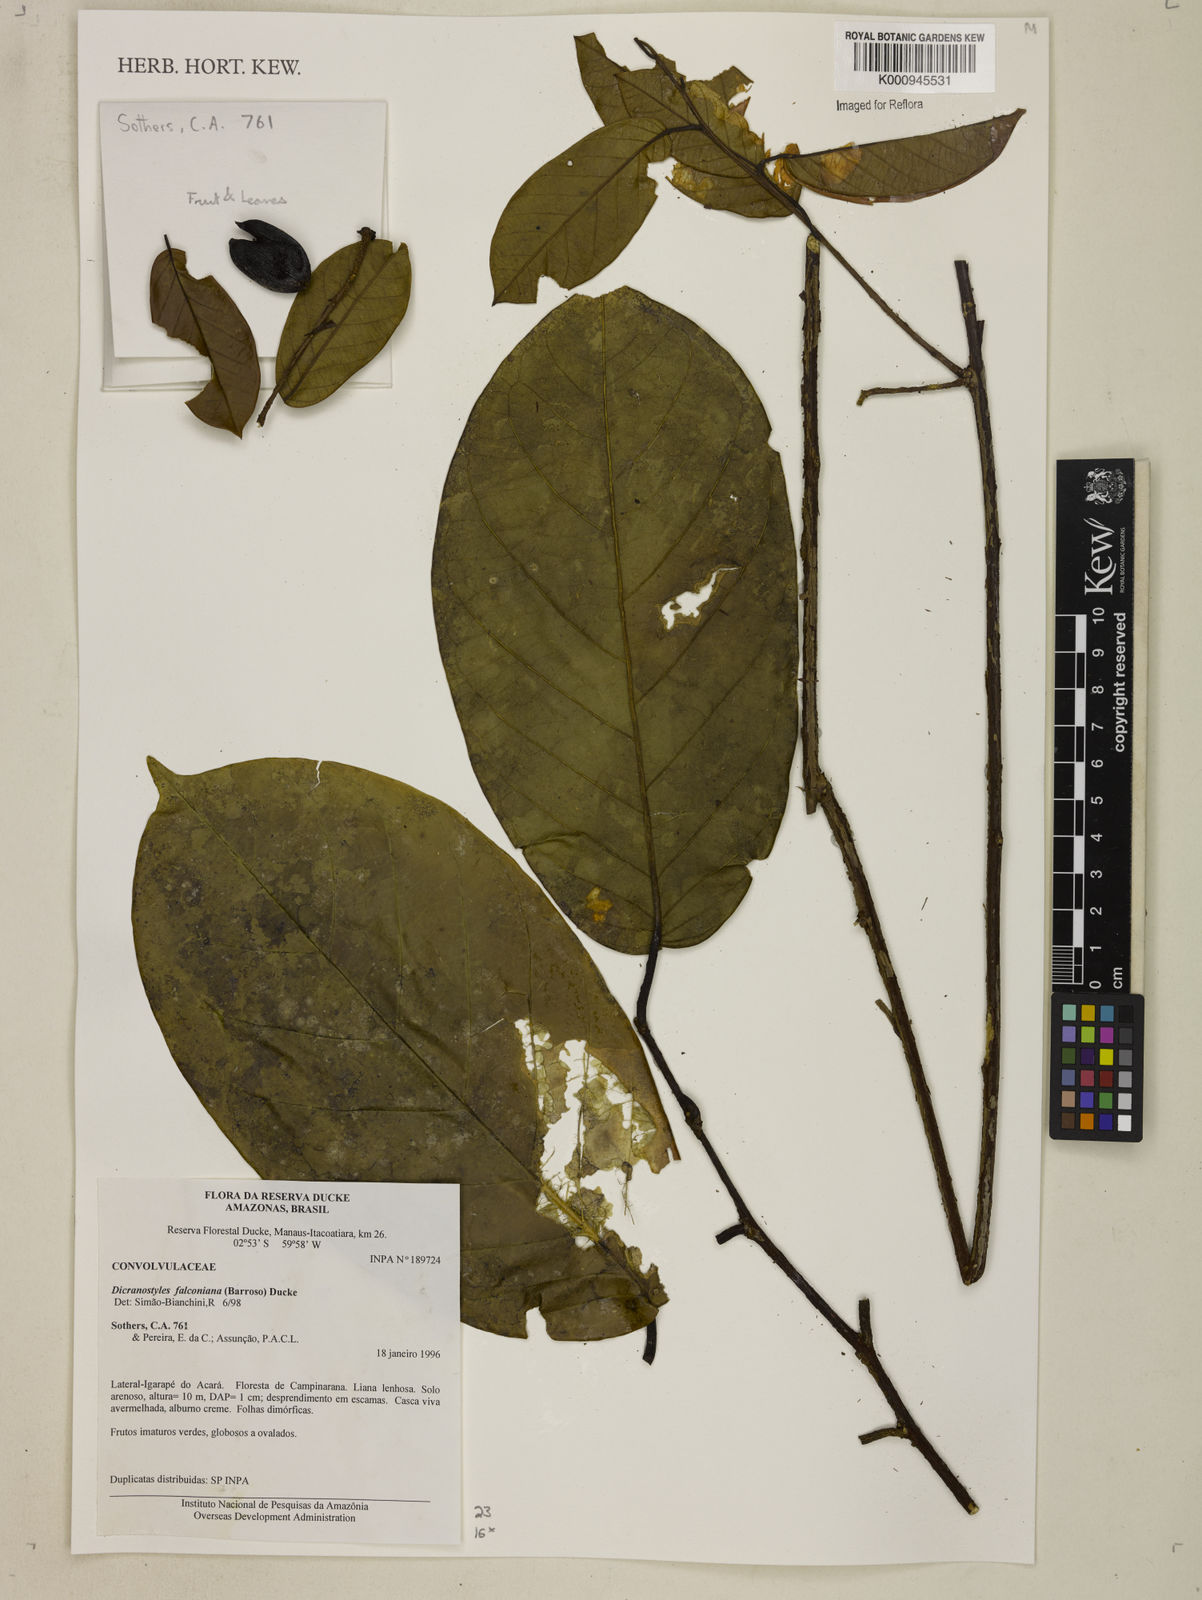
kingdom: Plantae
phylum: Tracheophyta
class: Magnoliopsida
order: Solanales
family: Convolvulaceae
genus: Dicranostyles
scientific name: Dicranostyles falconiana
